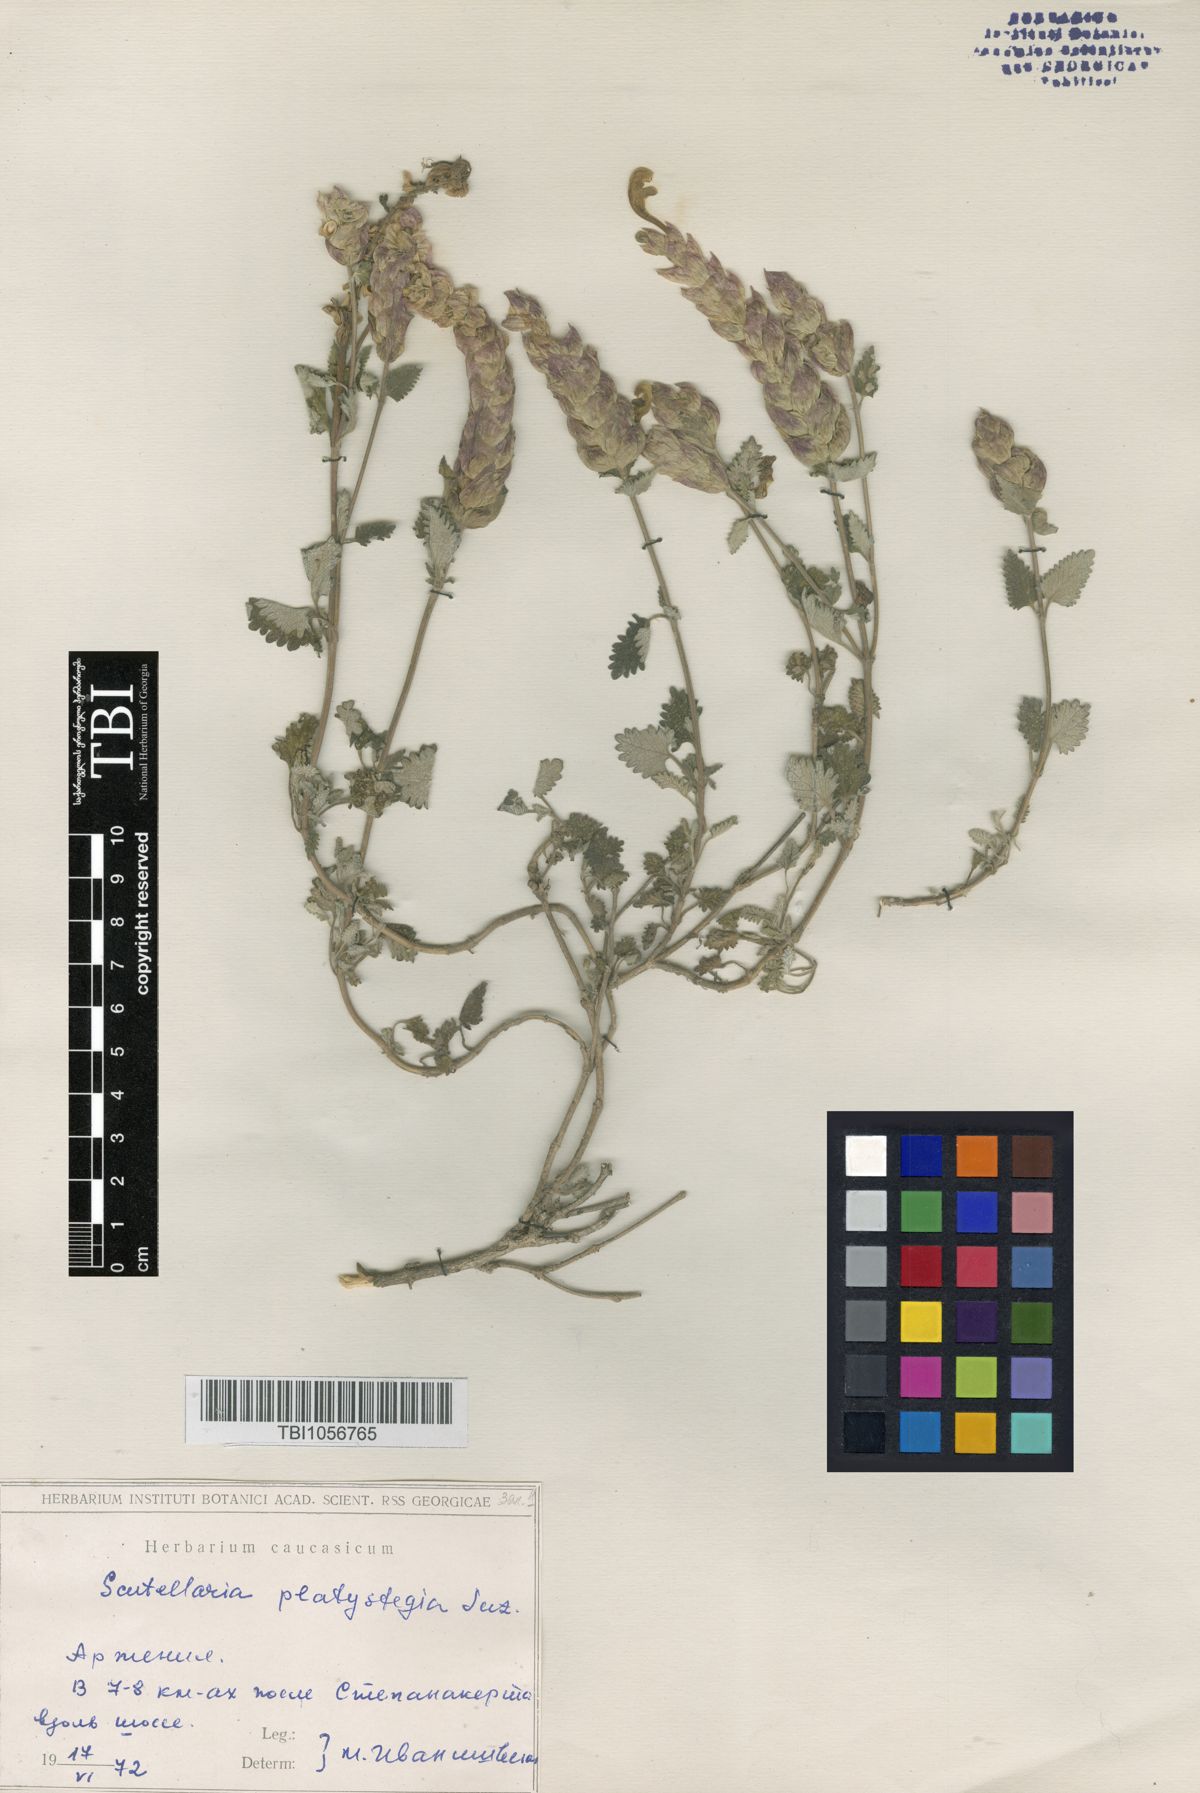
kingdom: Plantae
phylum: Tracheophyta
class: Magnoliopsida
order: Lamiales
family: Lamiaceae
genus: Scutellaria
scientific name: Scutellaria platystegia
